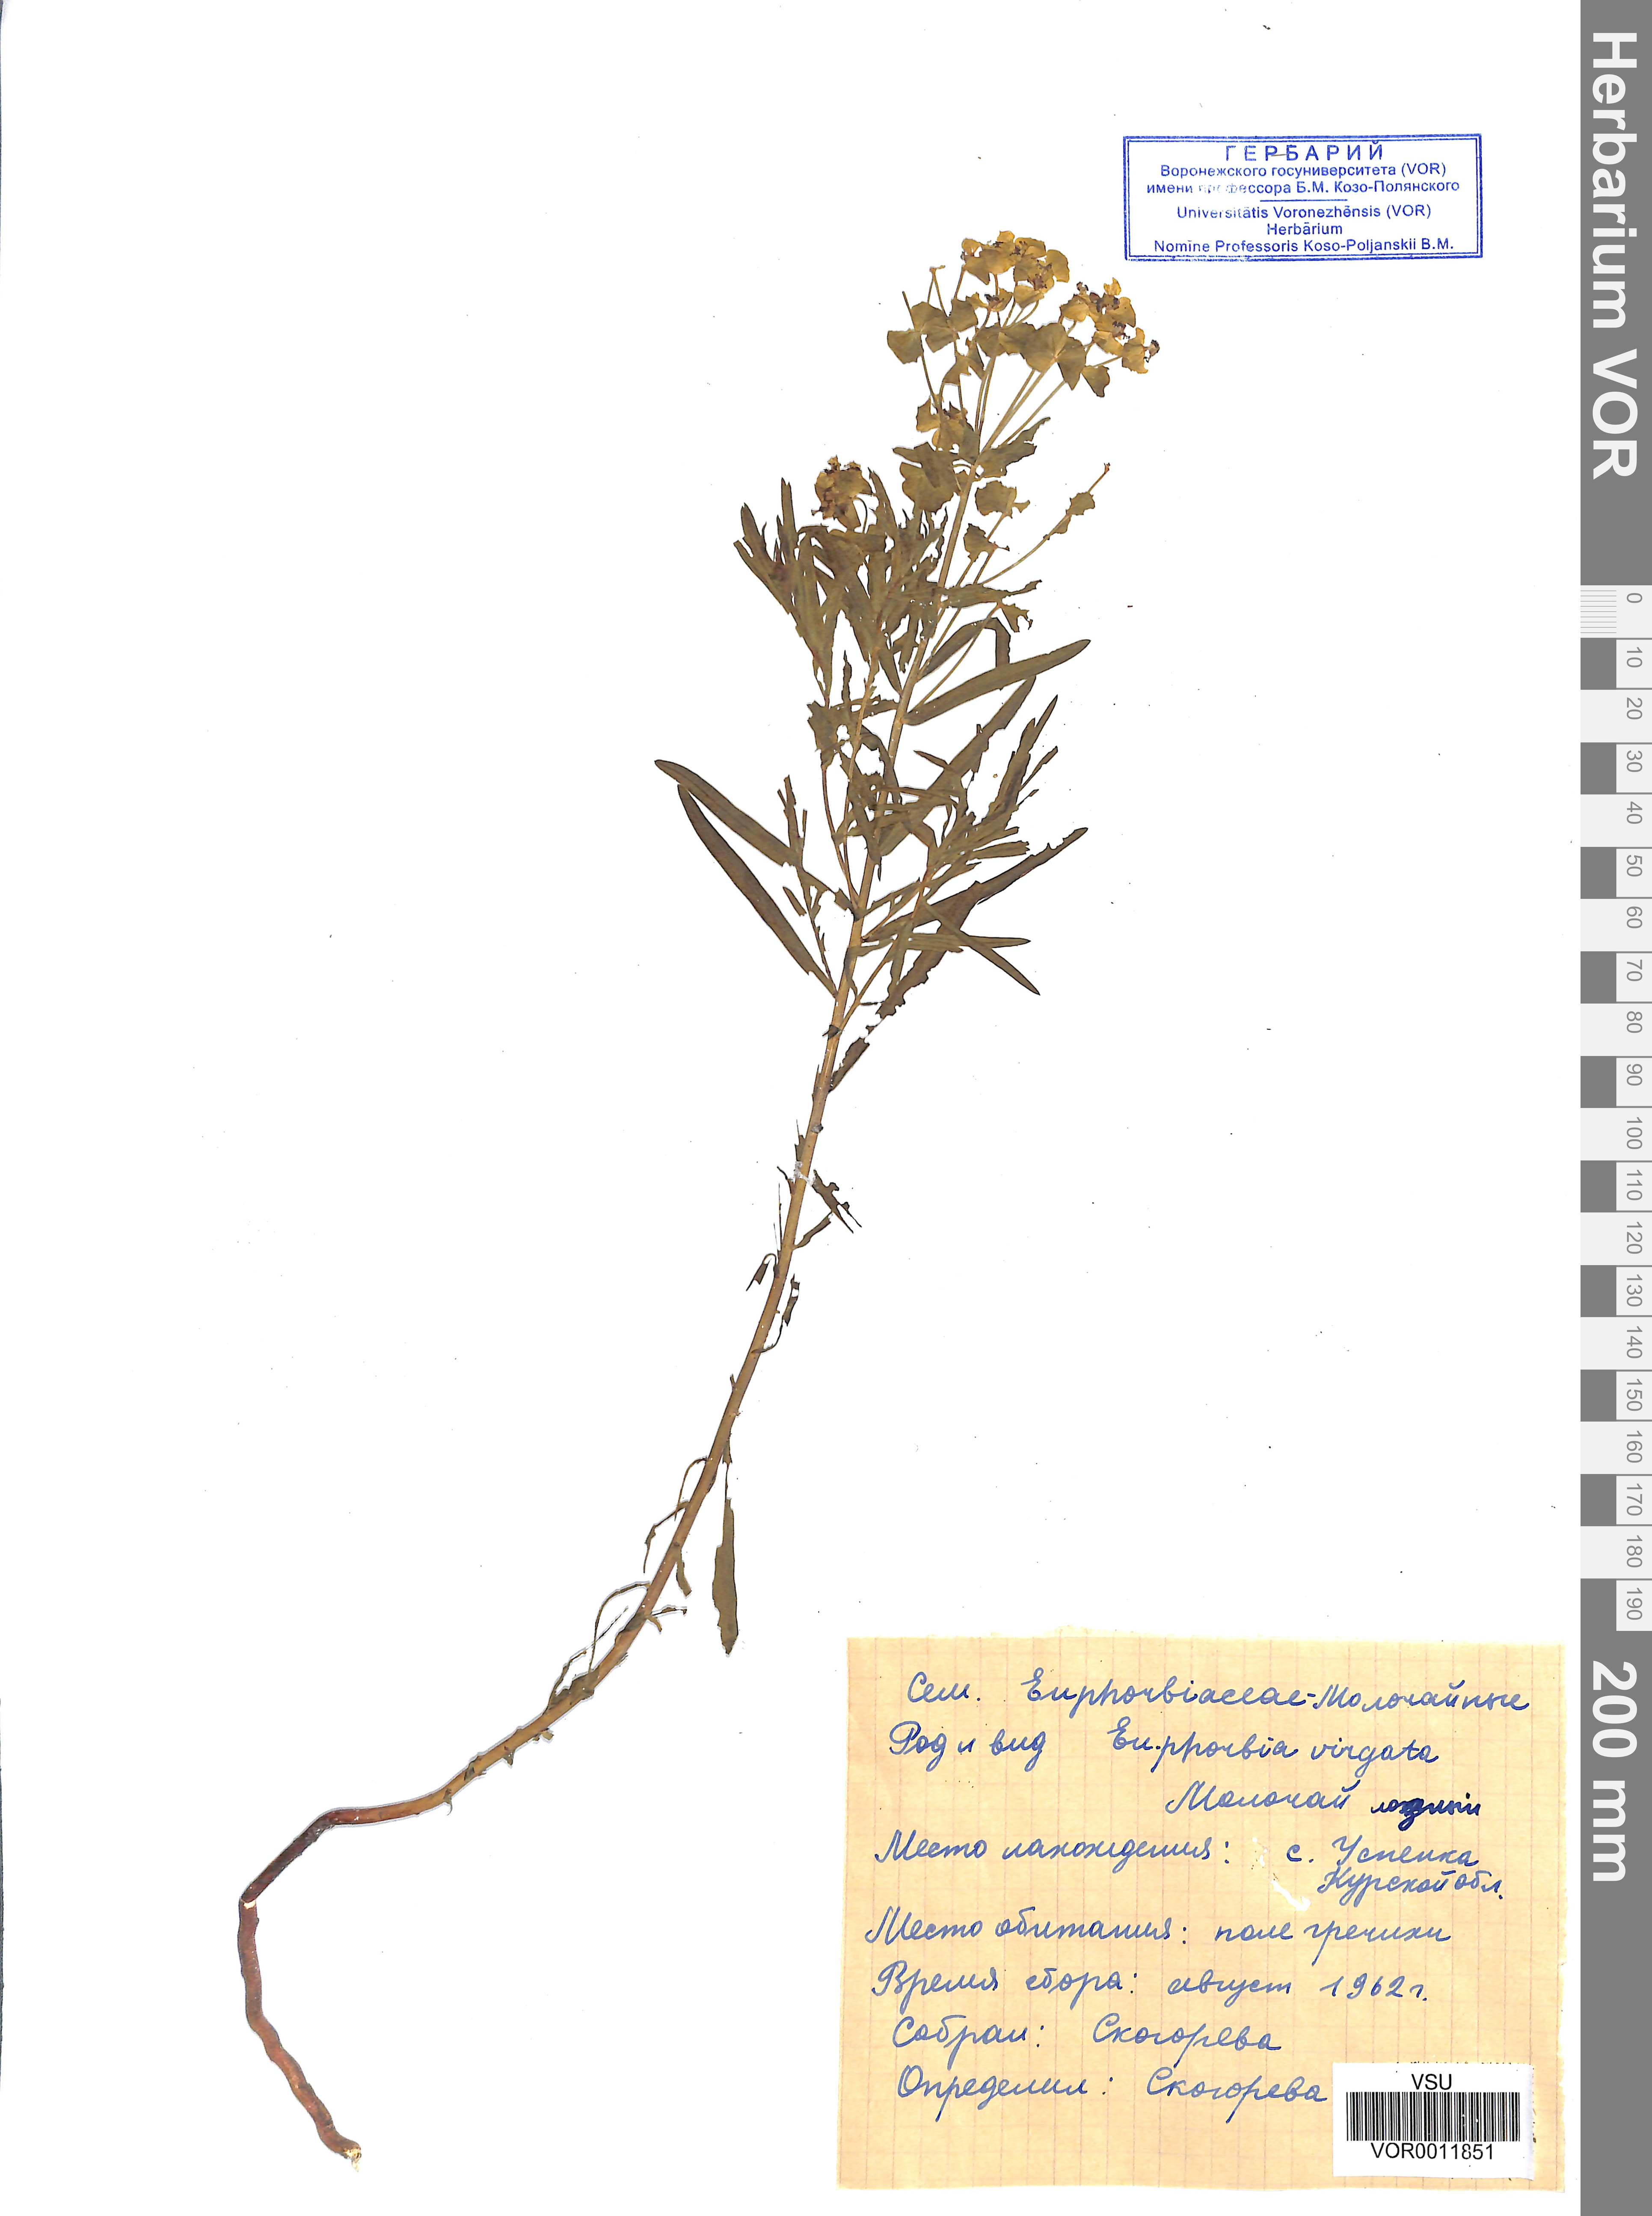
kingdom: Plantae
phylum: Tracheophyta
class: Magnoliopsida
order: Malpighiales
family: Euphorbiaceae
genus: Euphorbia
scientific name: Euphorbia virgata
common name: Leafy spurge
